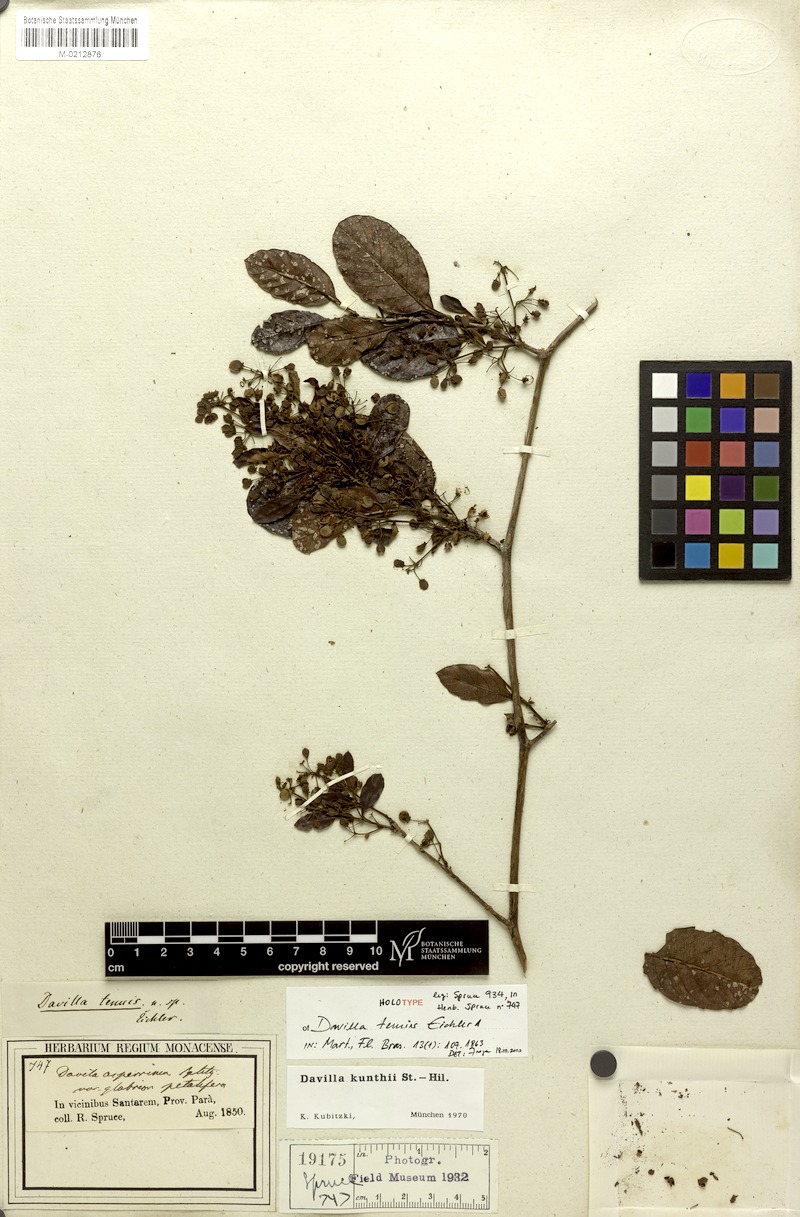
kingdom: Plantae
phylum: Tracheophyta
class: Magnoliopsida
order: Dilleniales
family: Dilleniaceae
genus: Davilla
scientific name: Davilla kunthii
